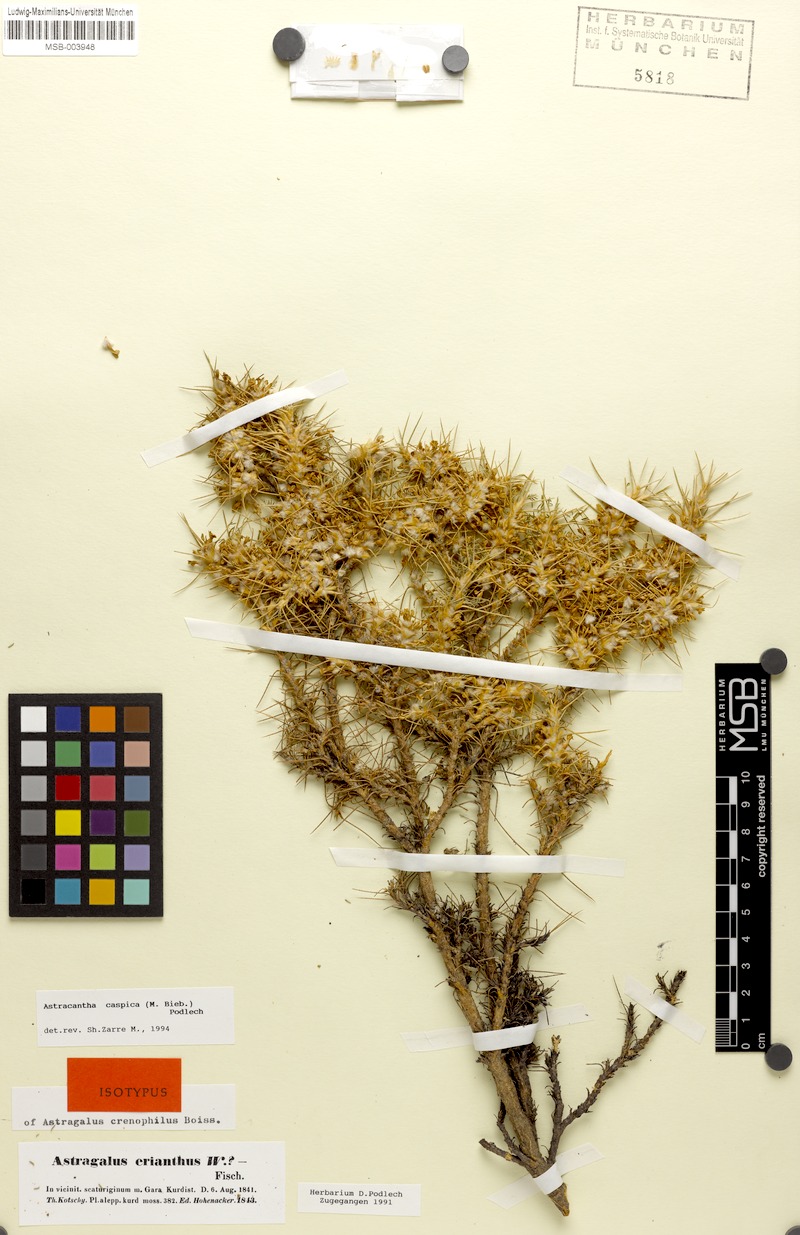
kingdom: Plantae
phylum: Tracheophyta
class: Magnoliopsida
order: Fabales
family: Fabaceae
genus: Astragalus
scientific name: Astragalus caspicus
